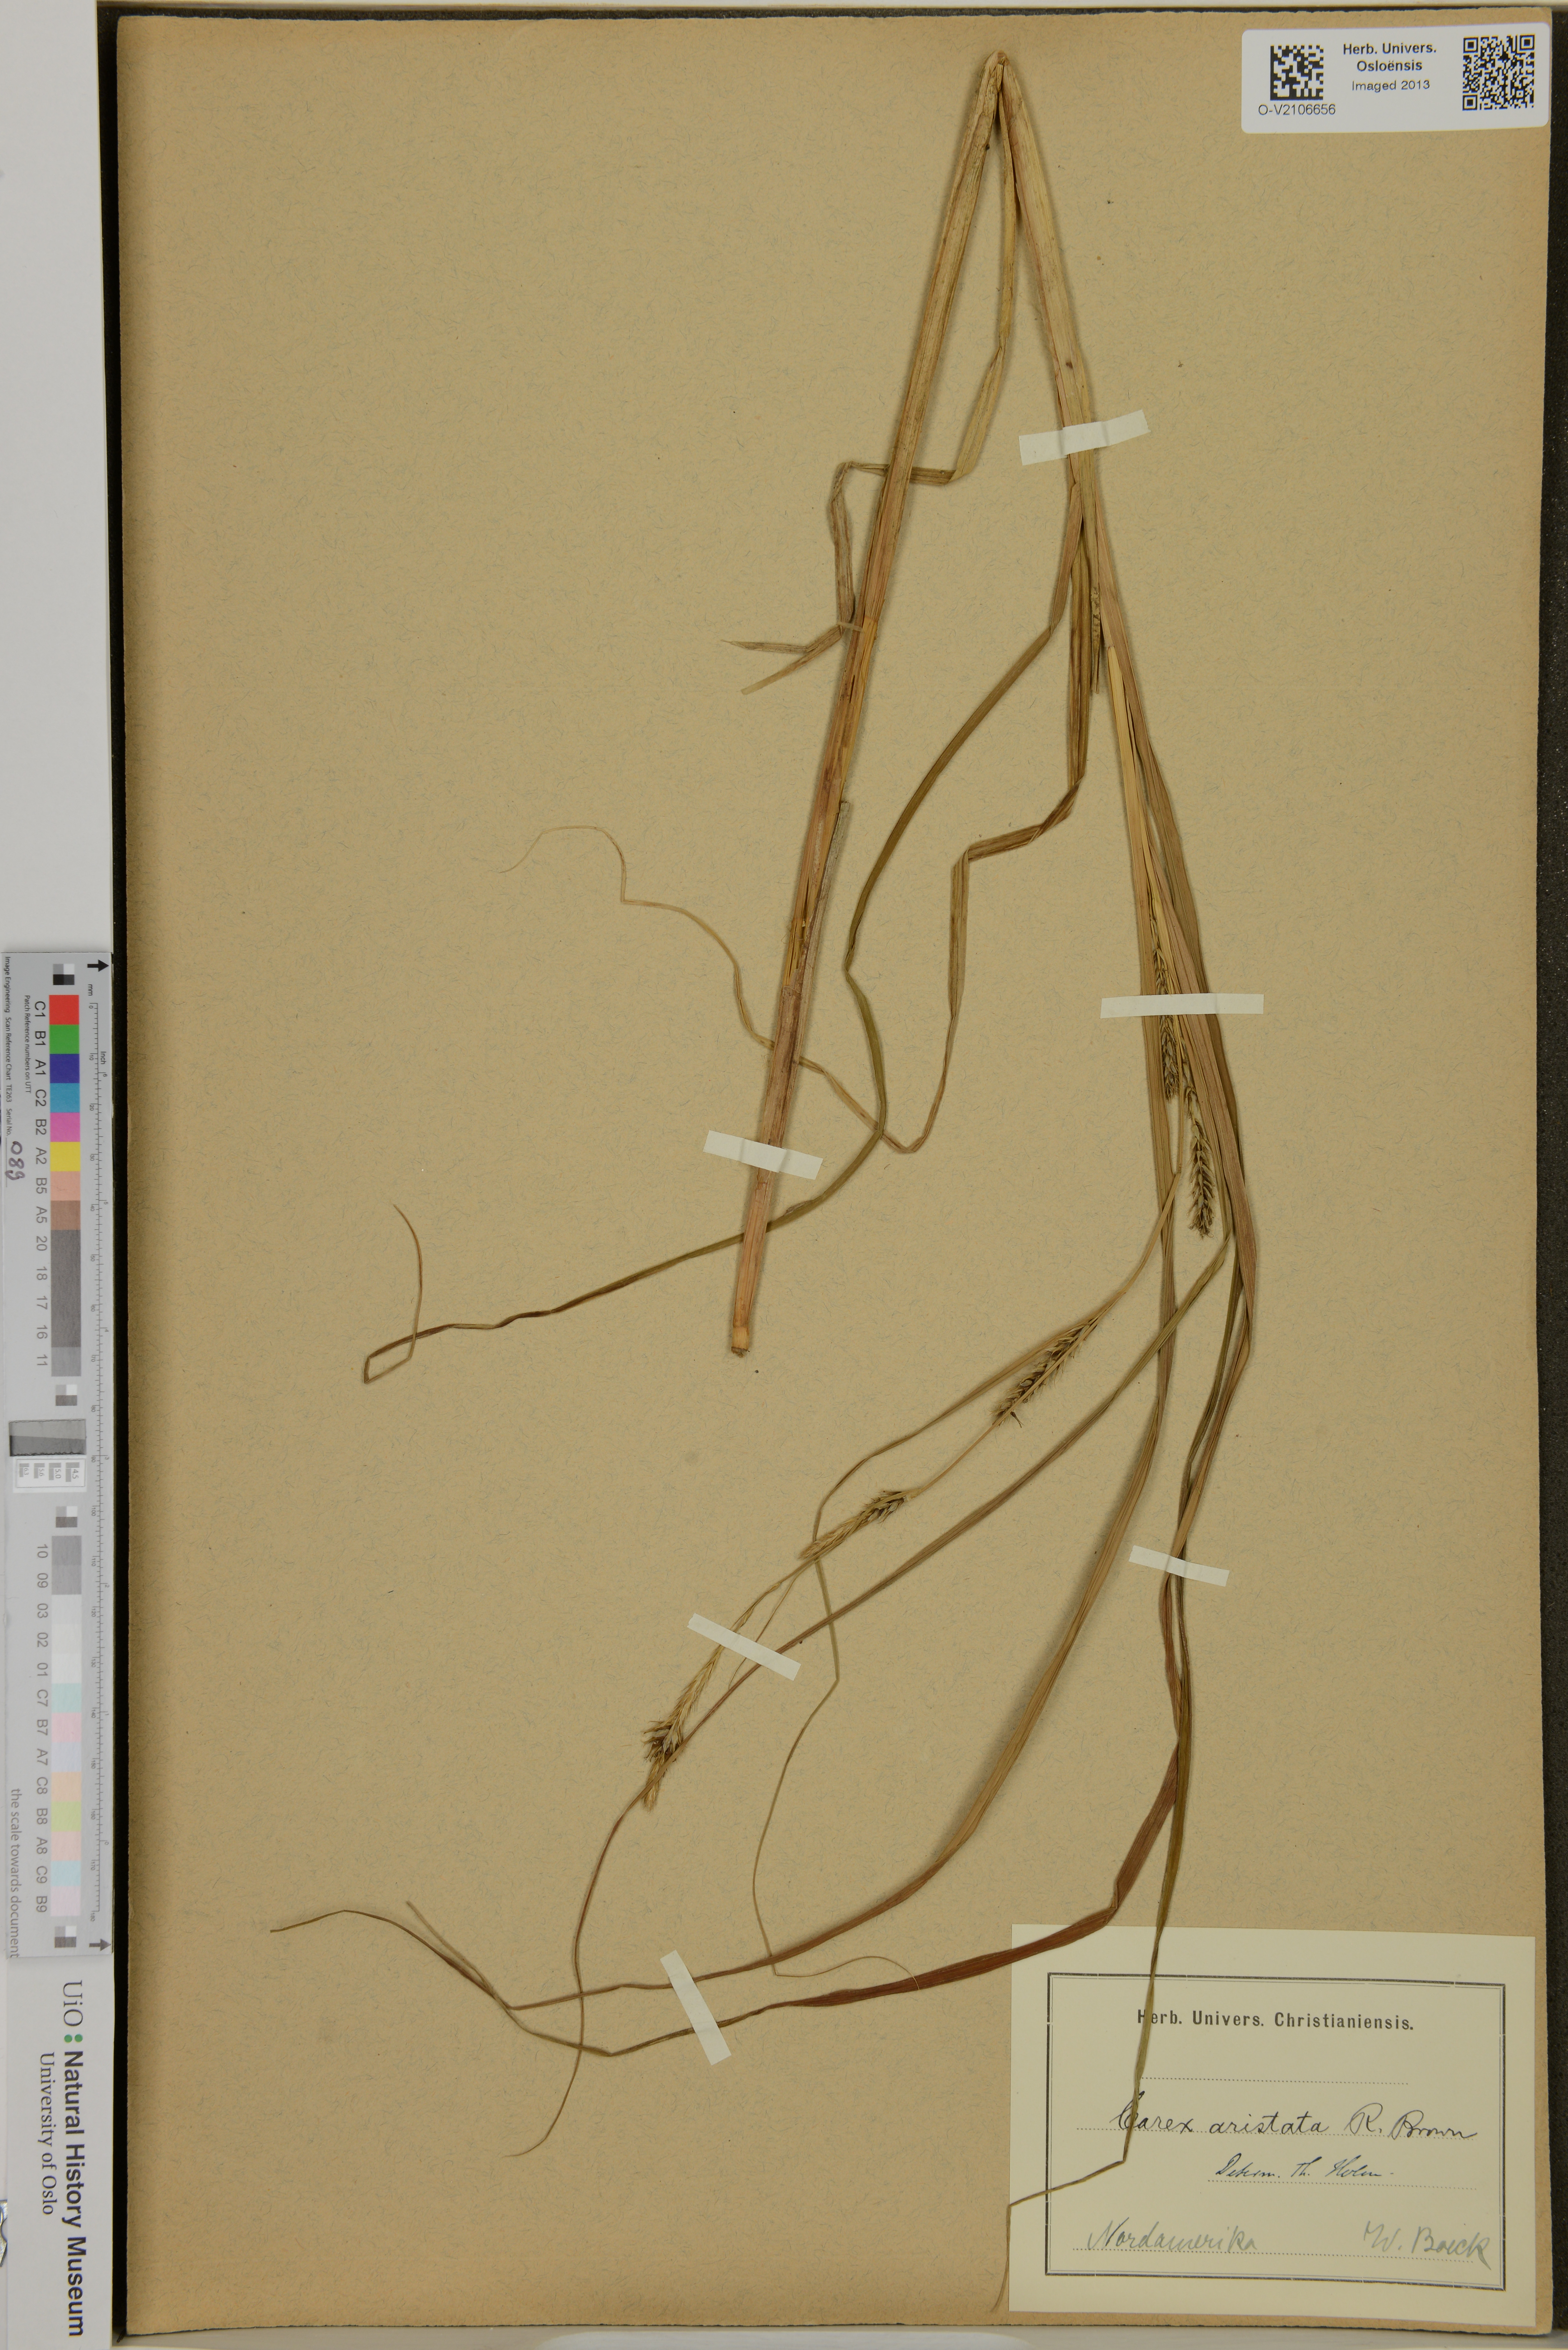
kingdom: Plantae
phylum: Tracheophyta
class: Liliopsida
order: Poales
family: Cyperaceae
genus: Carex
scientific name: Carex atherodes
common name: Wheat sedge
